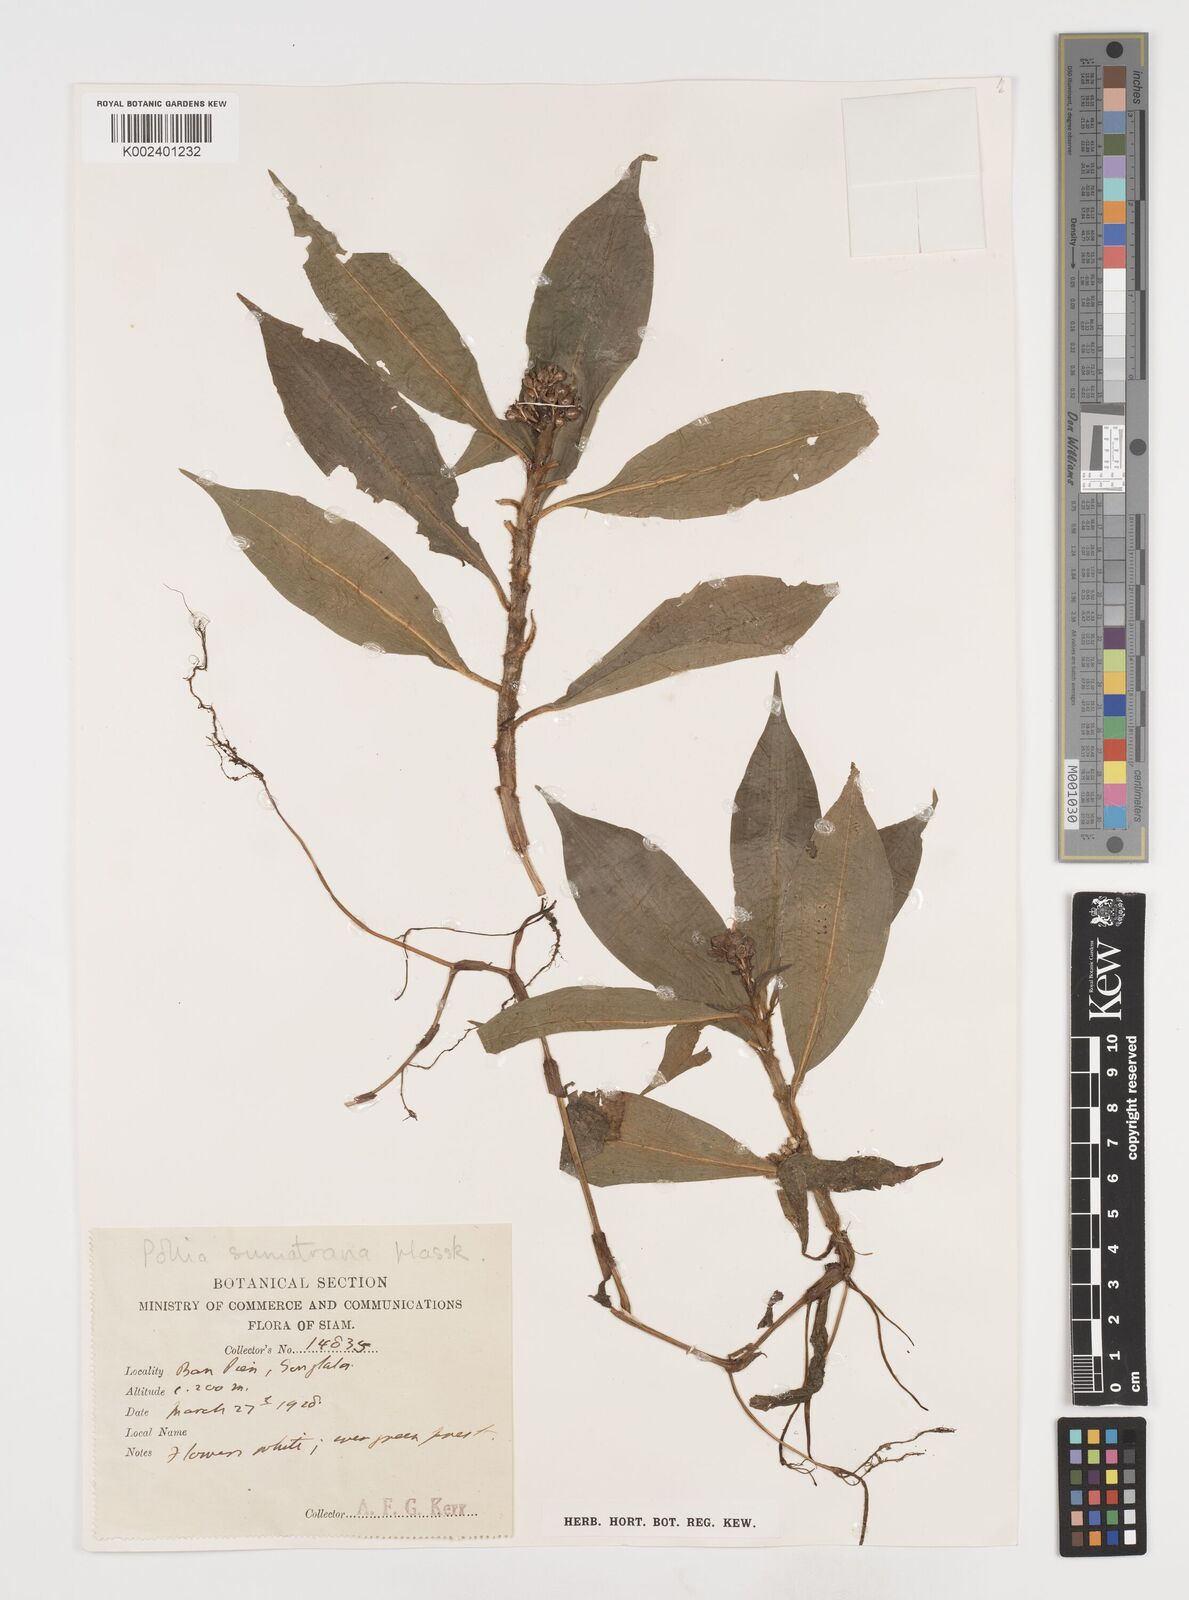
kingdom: Plantae
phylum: Tracheophyta
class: Liliopsida
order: Commelinales
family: Commelinaceae
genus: Pollia
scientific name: Pollia sumatrana
